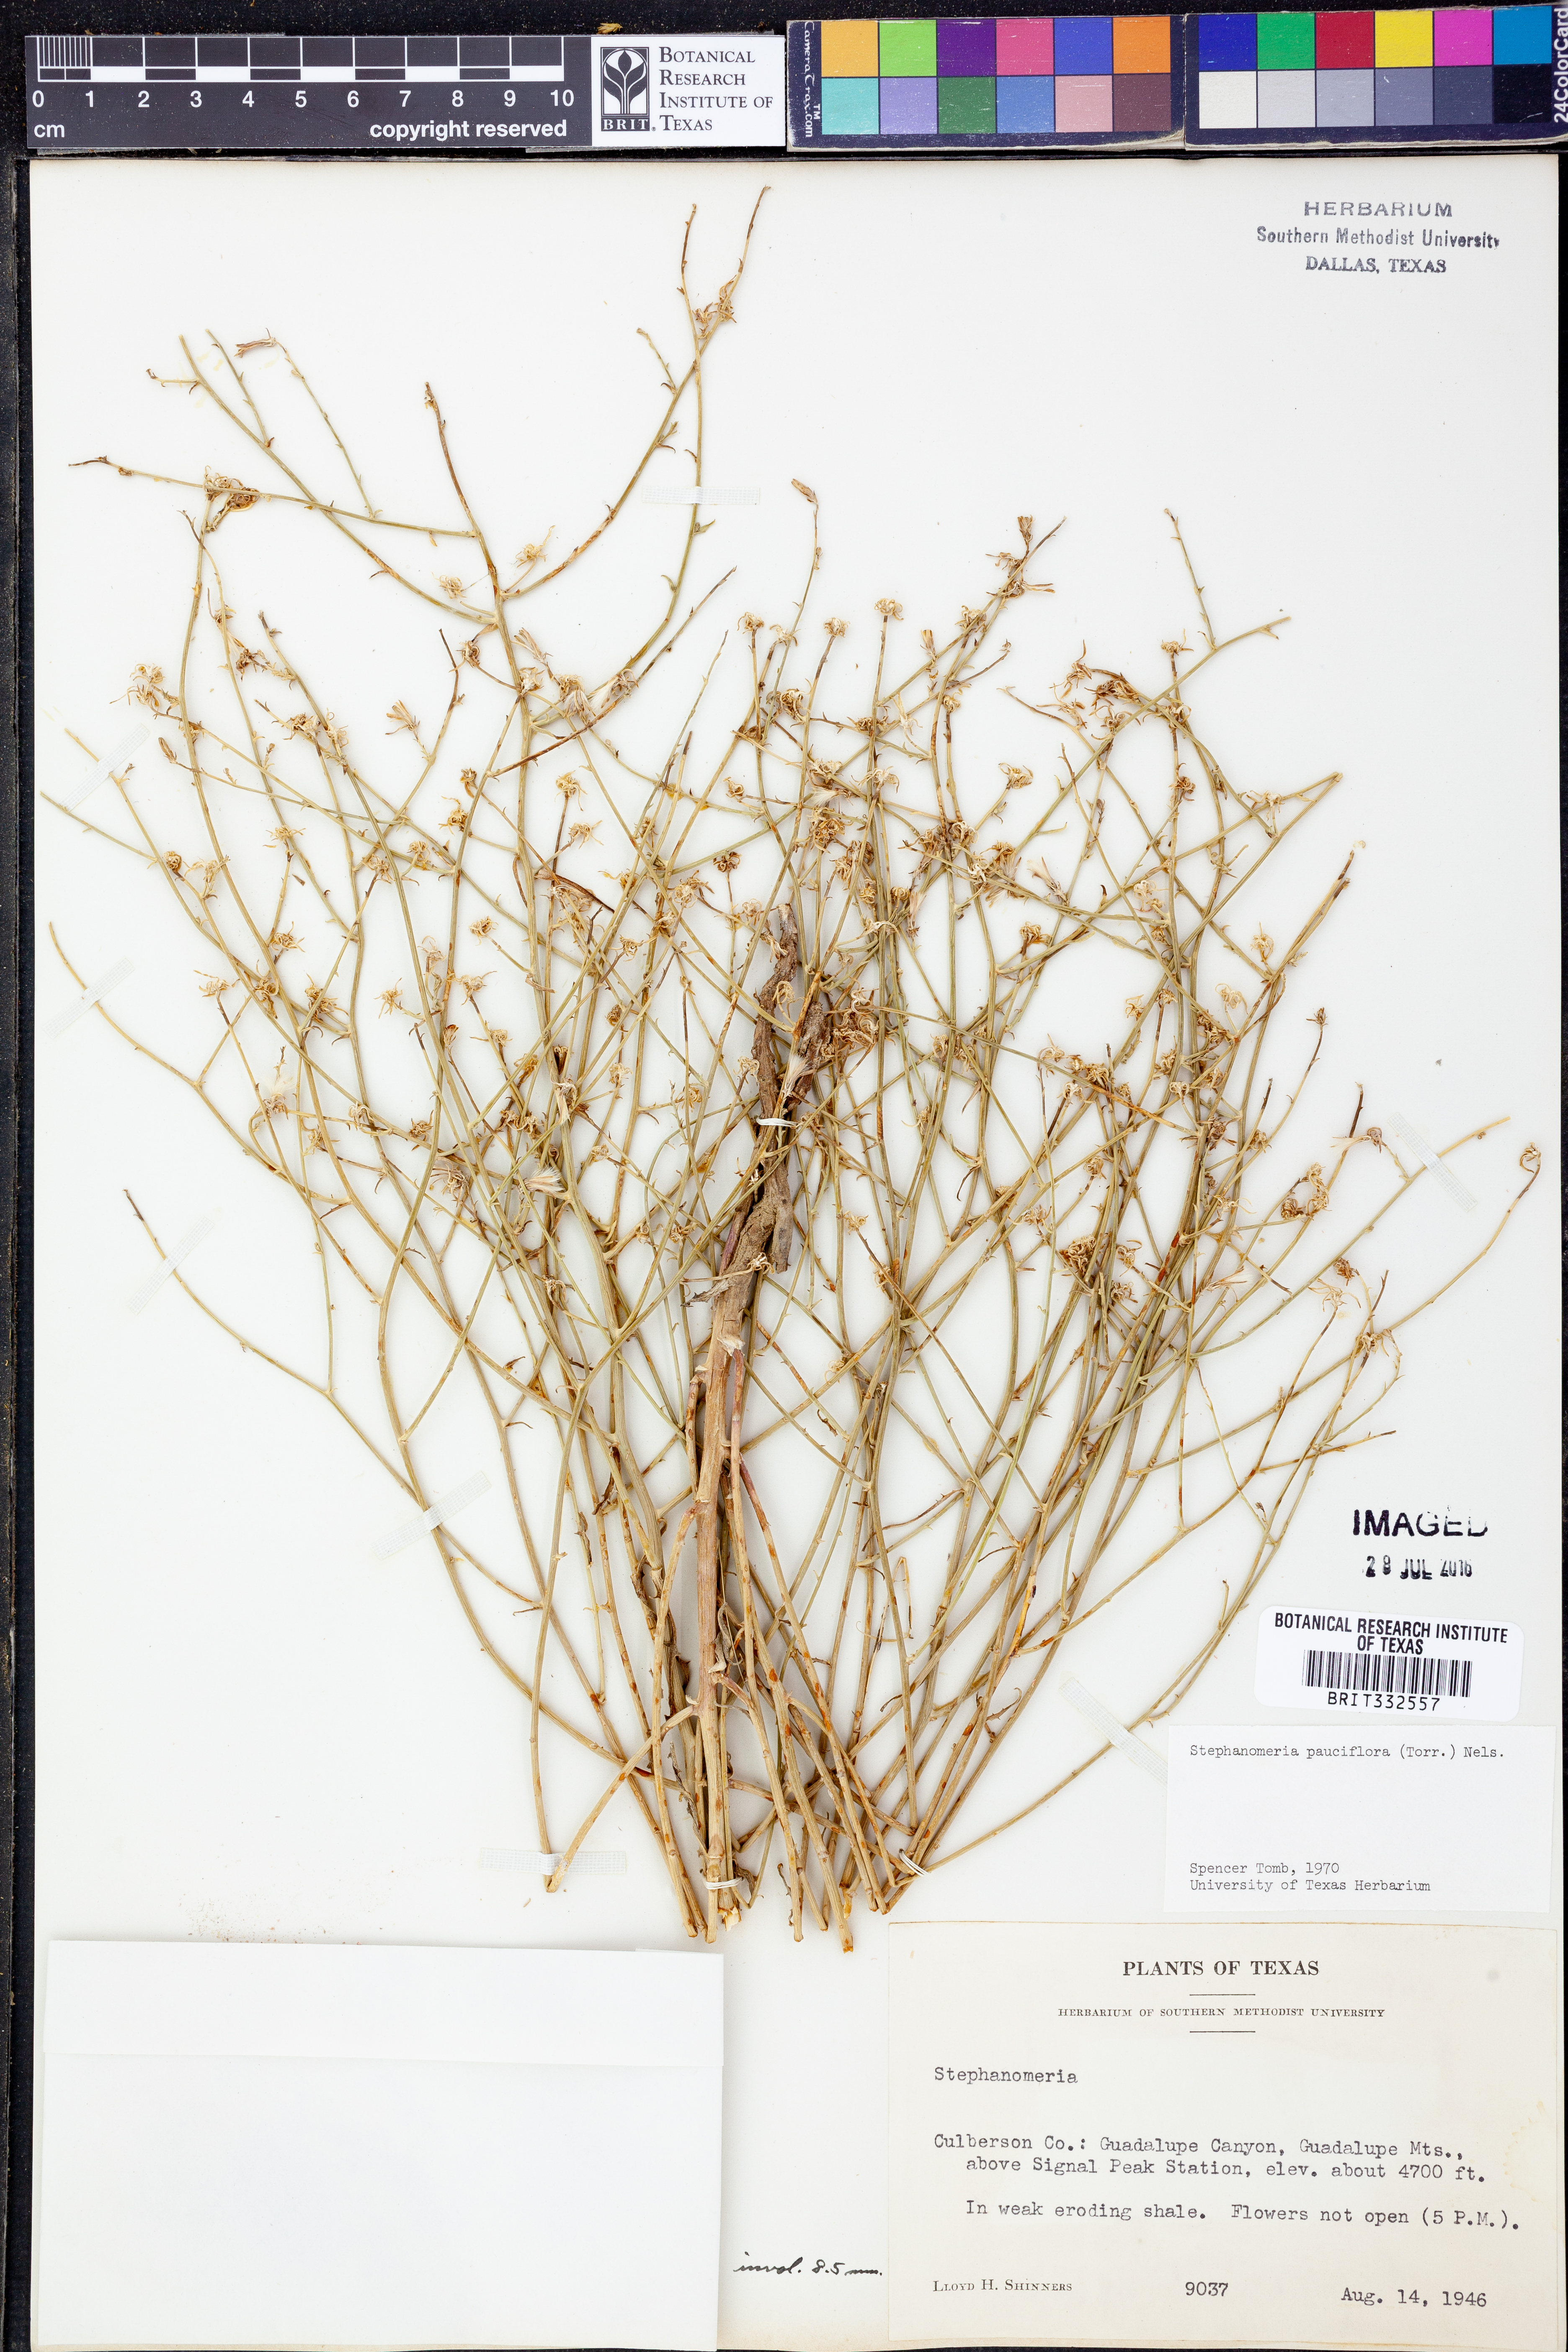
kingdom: Plantae
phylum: Tracheophyta
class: Magnoliopsida
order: Asterales
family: Asteraceae
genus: Stephanomeria
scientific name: Stephanomeria pauciflora
